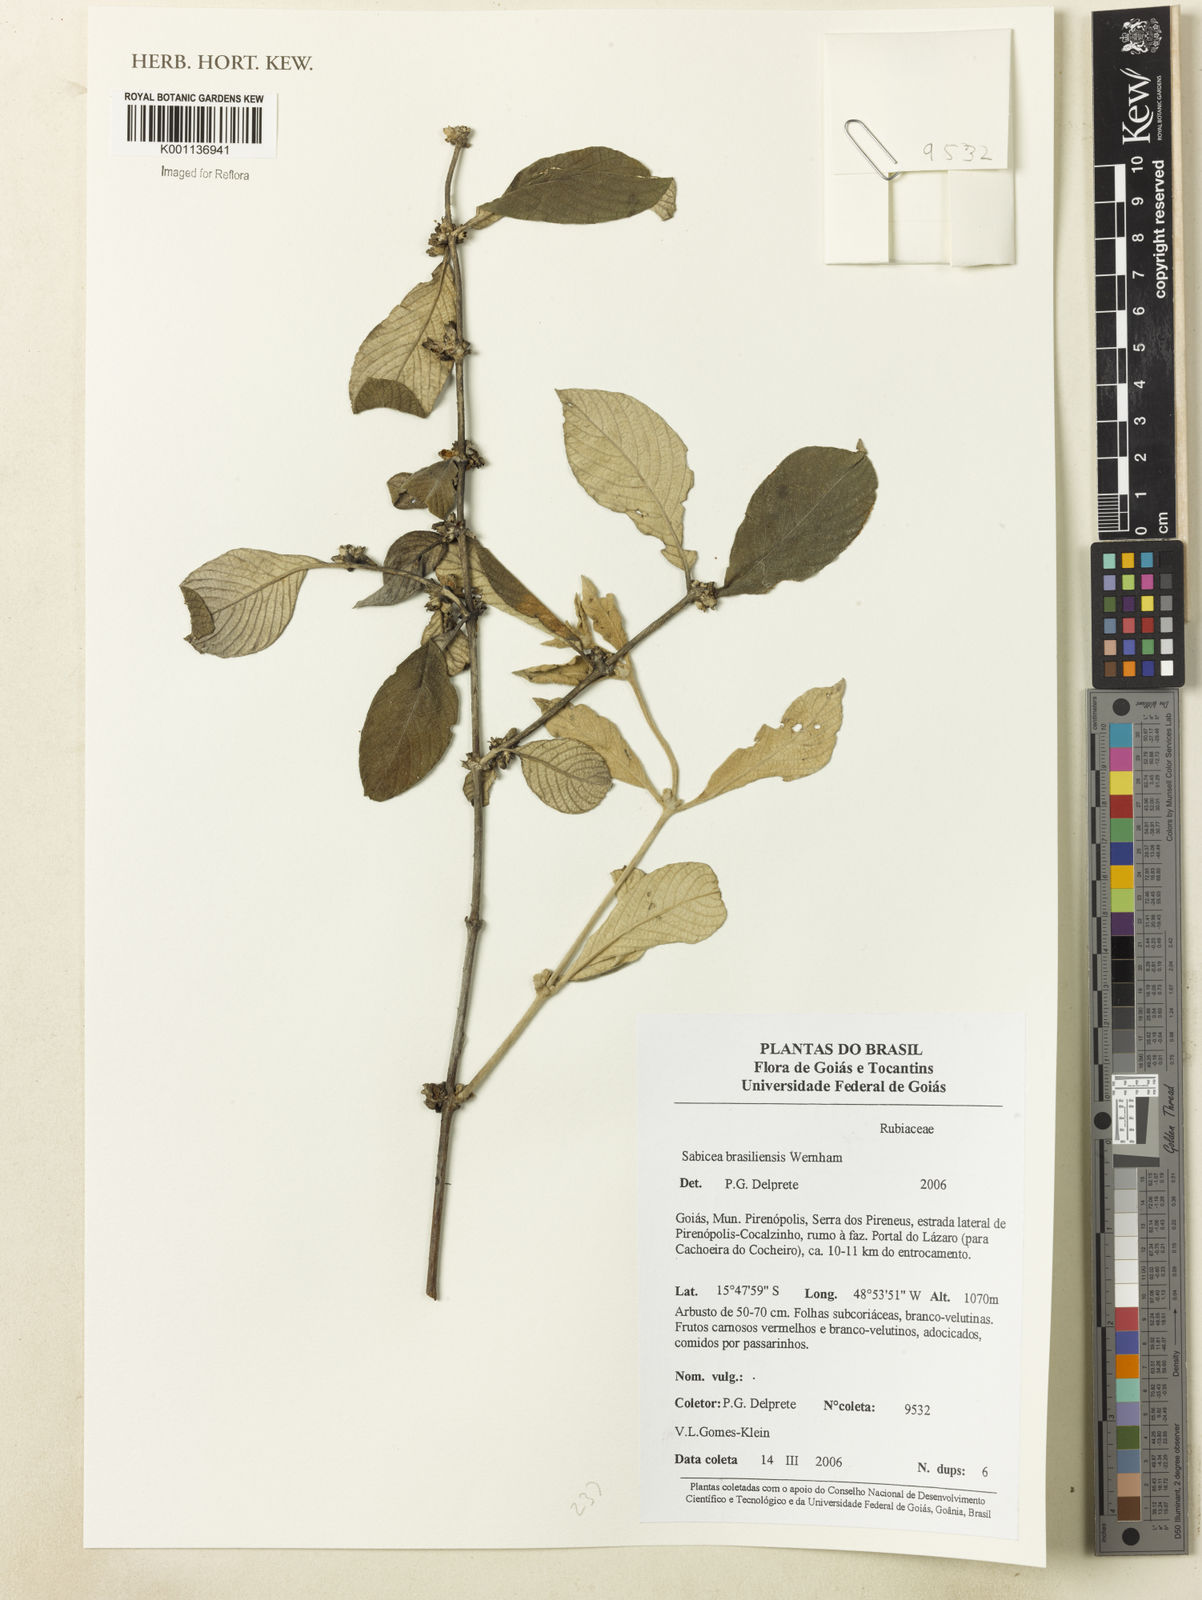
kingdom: Plantae
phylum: Tracheophyta
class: Magnoliopsida
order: Gentianales
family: Rubiaceae
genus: Sabicea
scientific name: Sabicea brasiliensis
